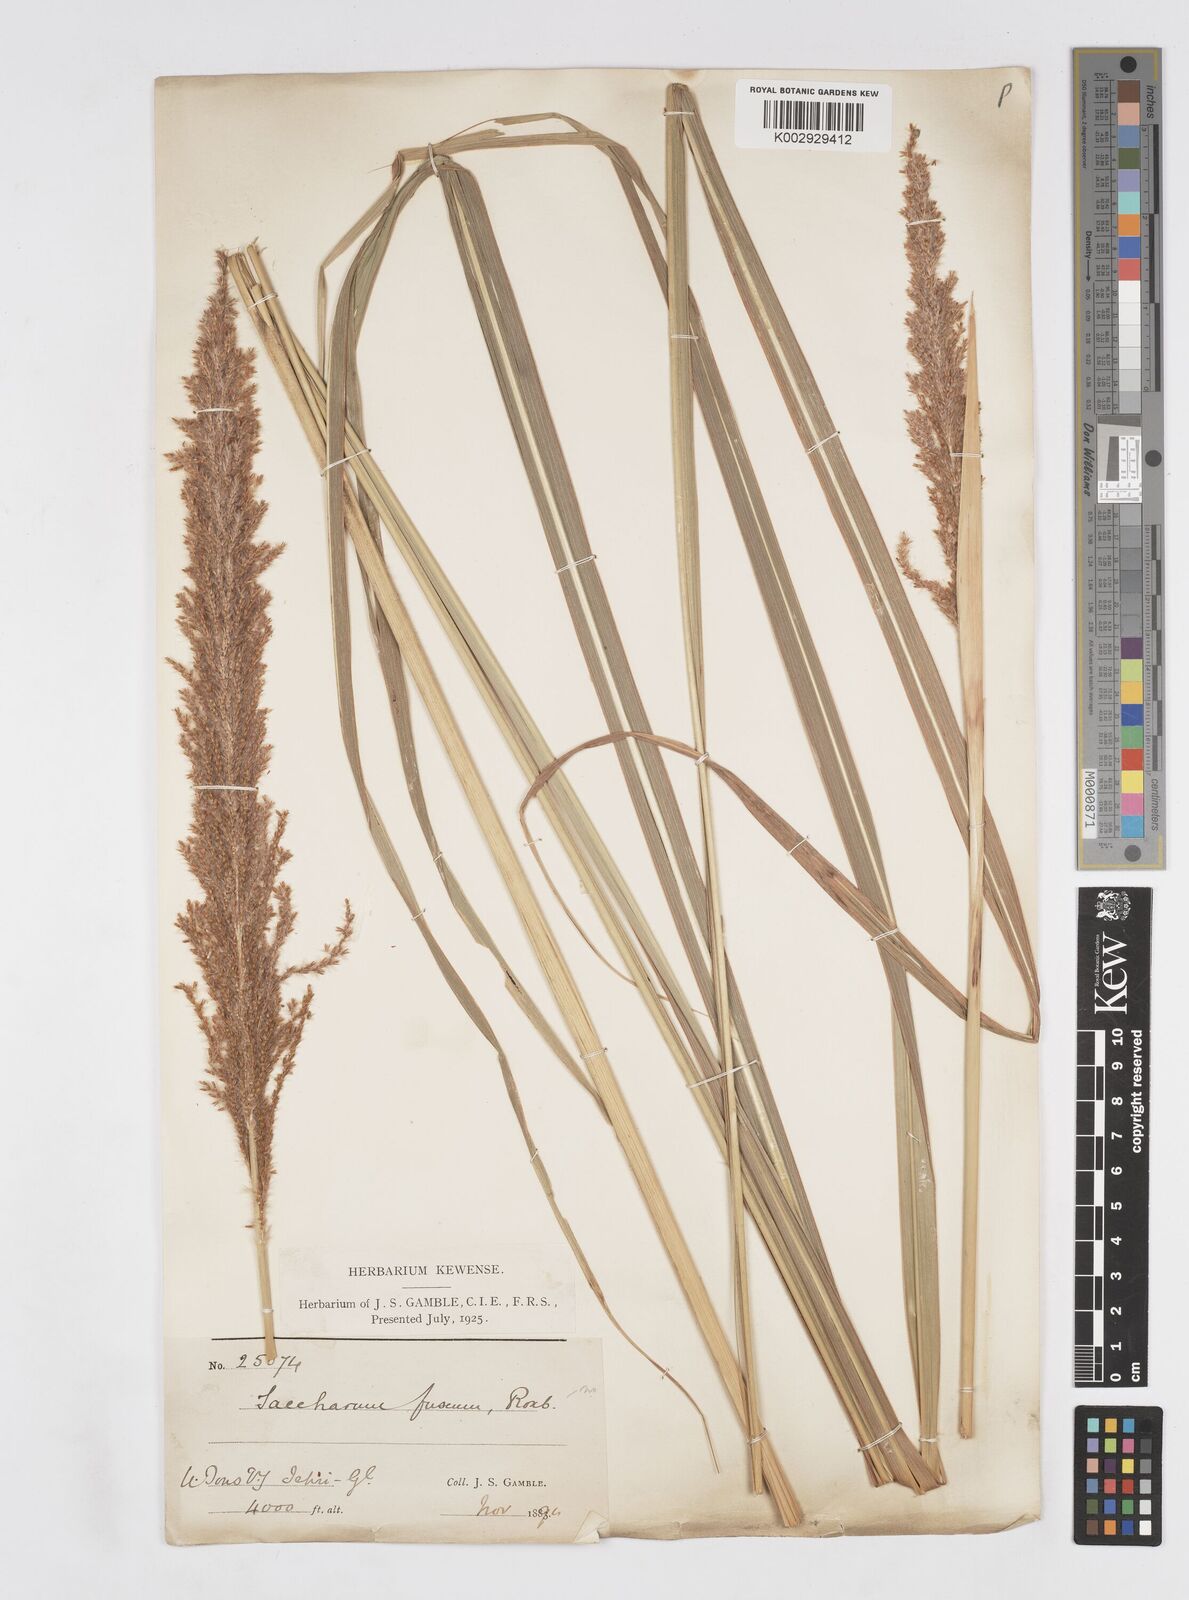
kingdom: Plantae
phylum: Tracheophyta
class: Liliopsida
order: Poales
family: Poaceae
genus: Narenga
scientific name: Narenga porphyrocoma
